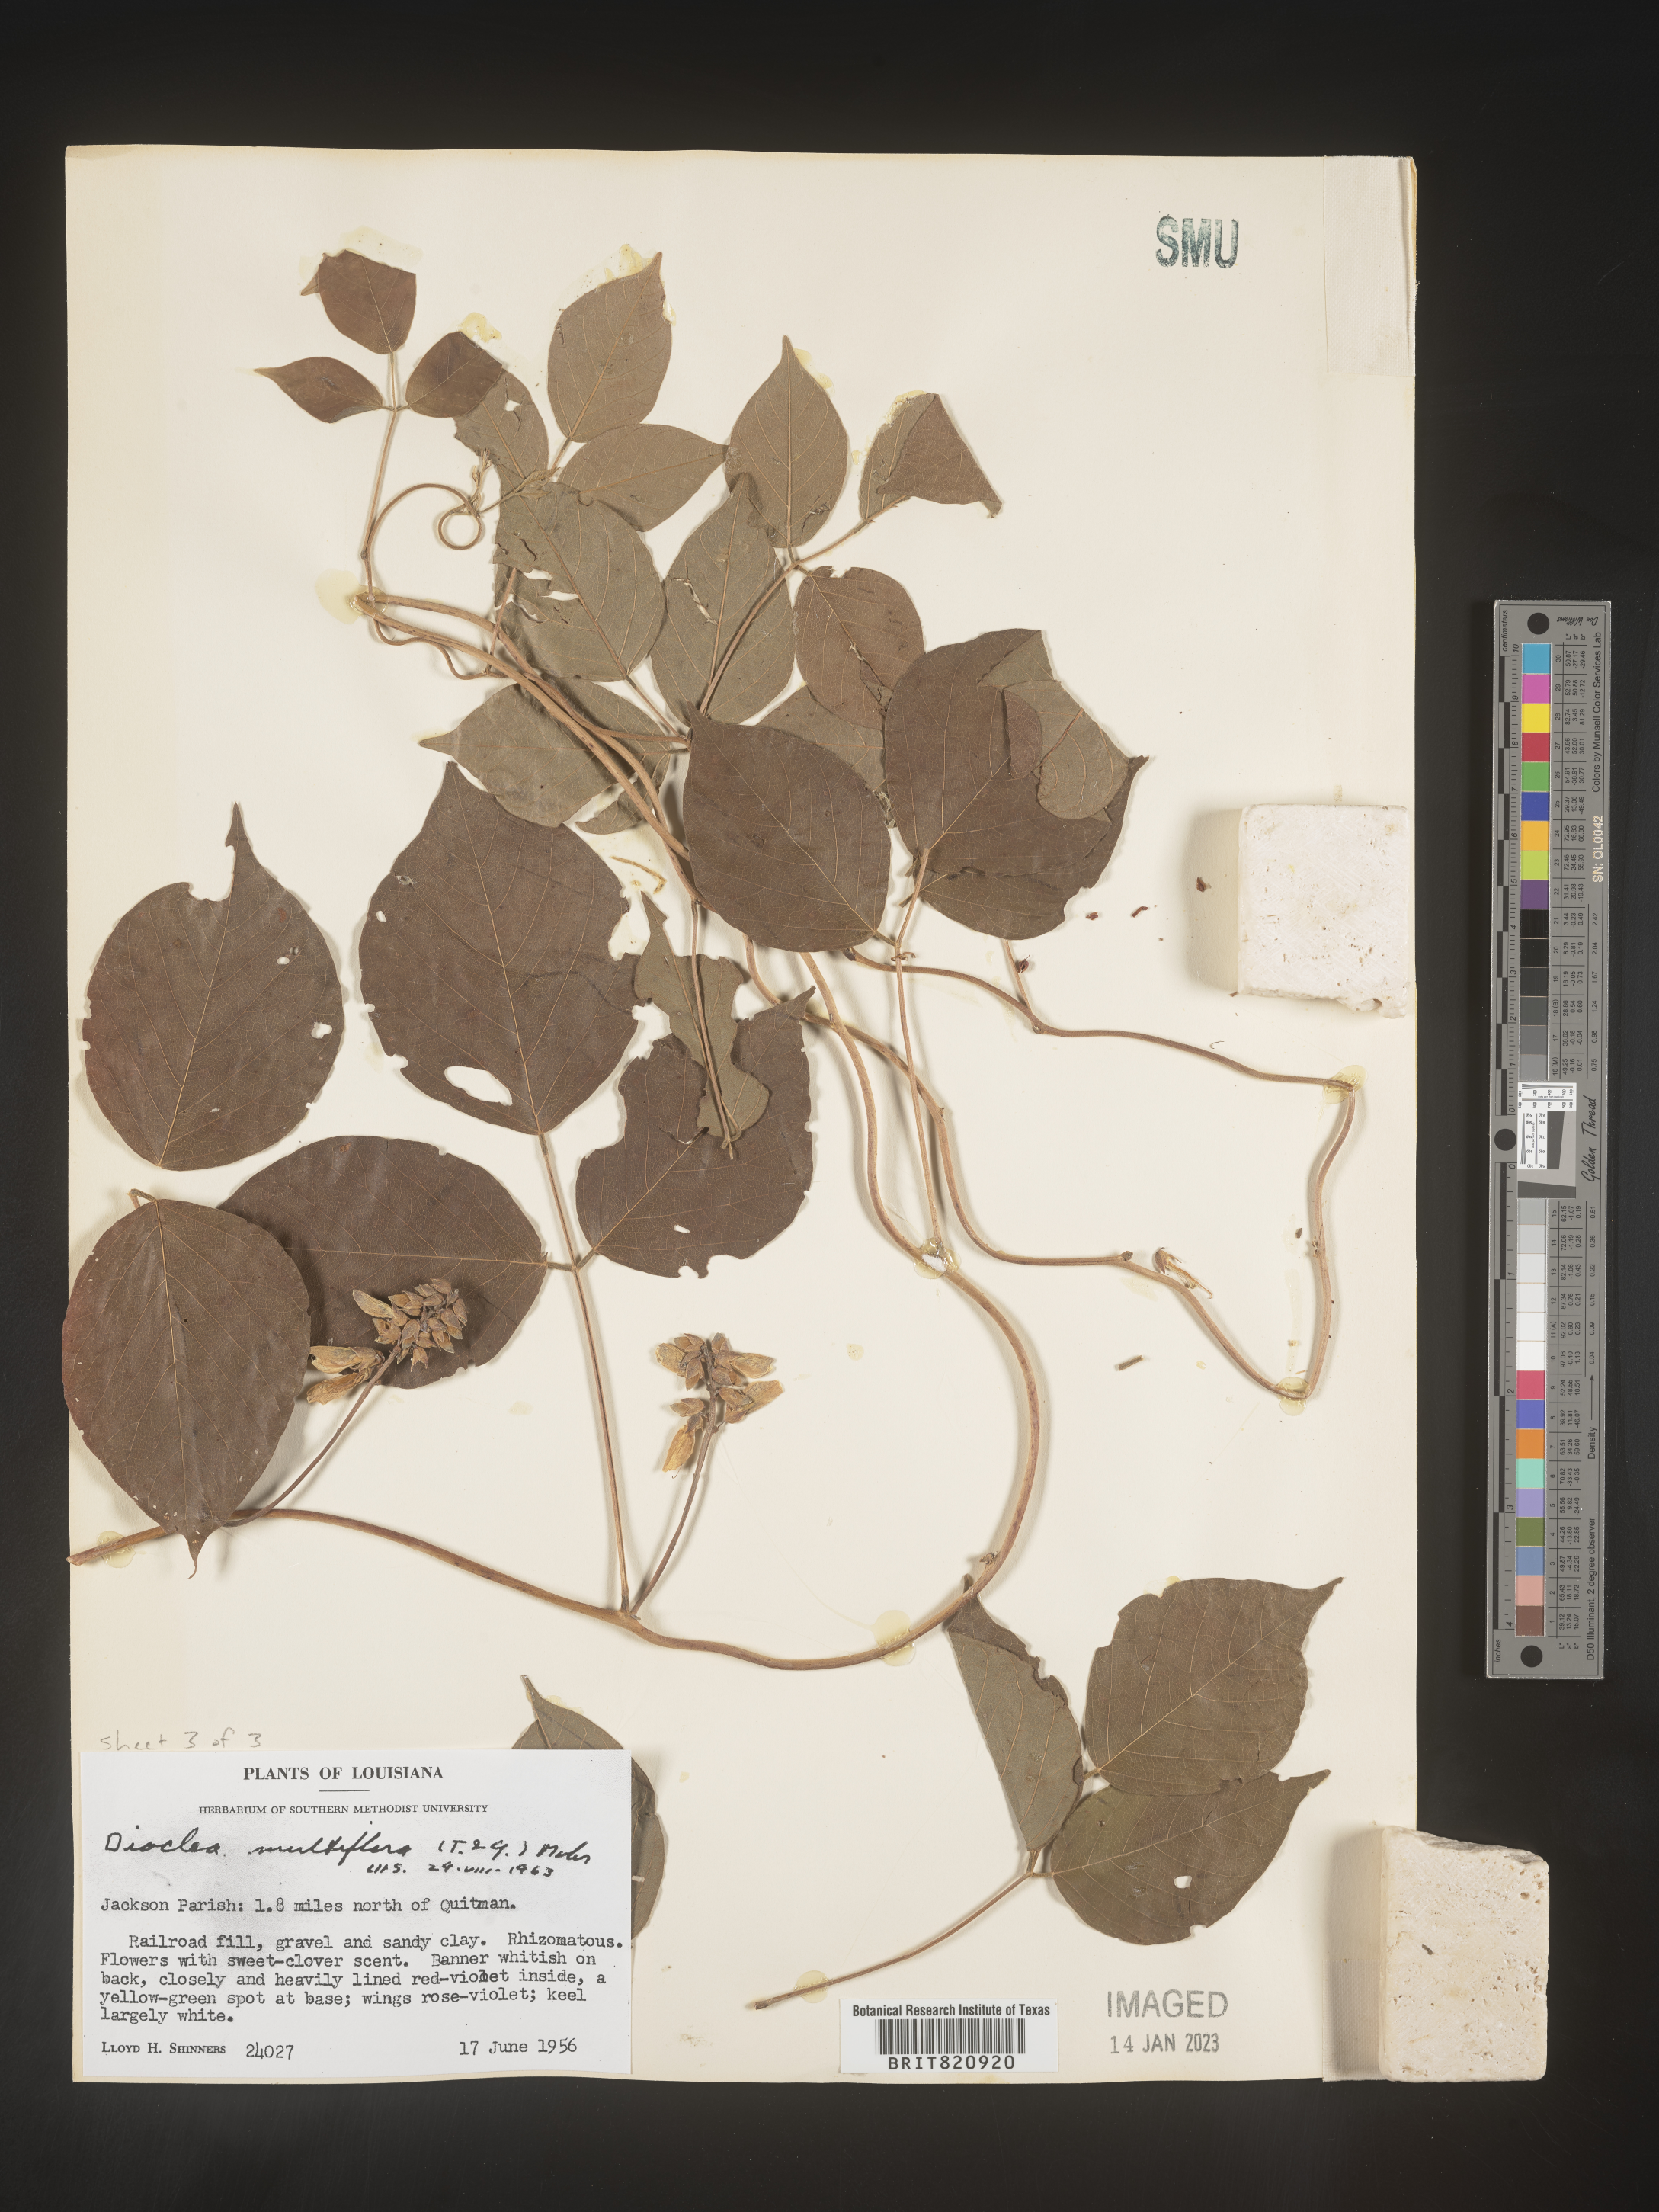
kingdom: Plantae
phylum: Tracheophyta
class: Magnoliopsida
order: Fabales
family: Fabaceae
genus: Dioclea
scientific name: Dioclea
